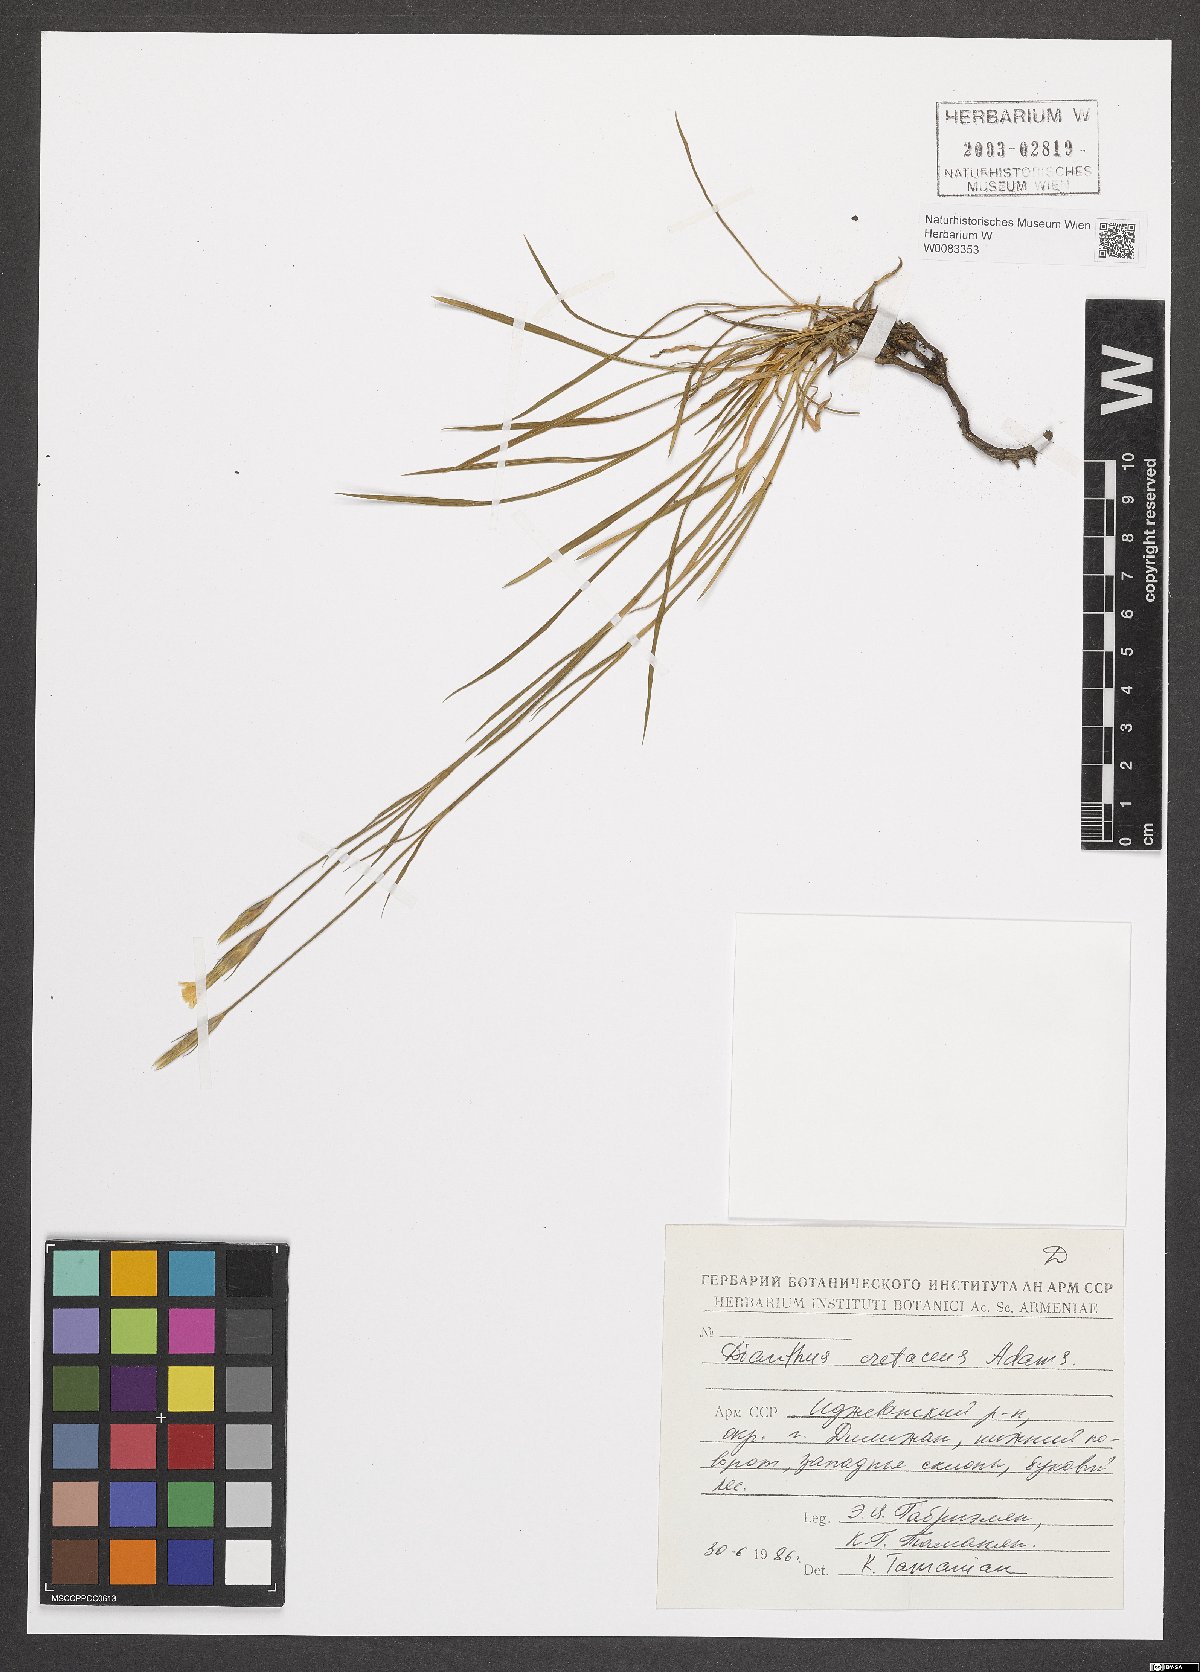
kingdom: Plantae
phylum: Tracheophyta
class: Magnoliopsida
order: Caryophyllales
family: Caryophyllaceae
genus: Dianthus
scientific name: Dianthus cretaceus
